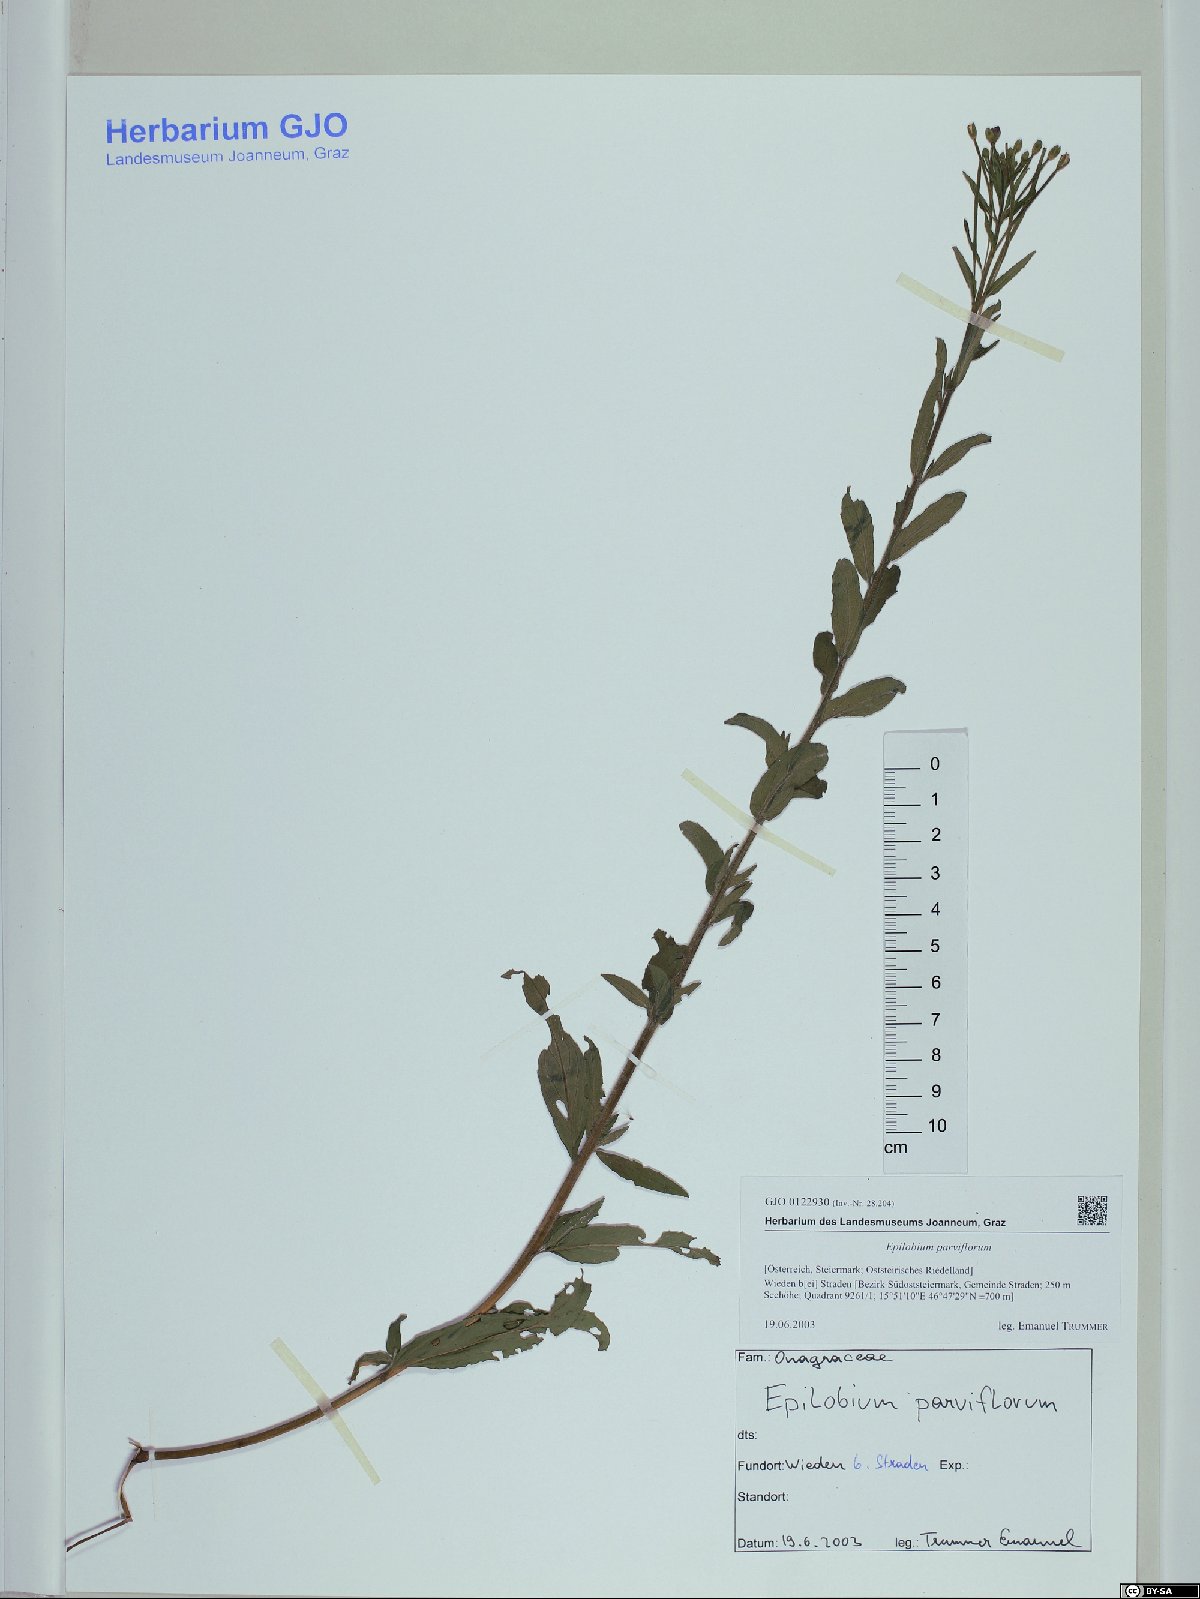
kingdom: Plantae
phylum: Tracheophyta
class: Magnoliopsida
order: Myrtales
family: Onagraceae
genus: Epilobium
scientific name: Epilobium parviflorum
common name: Hoary willowherb
